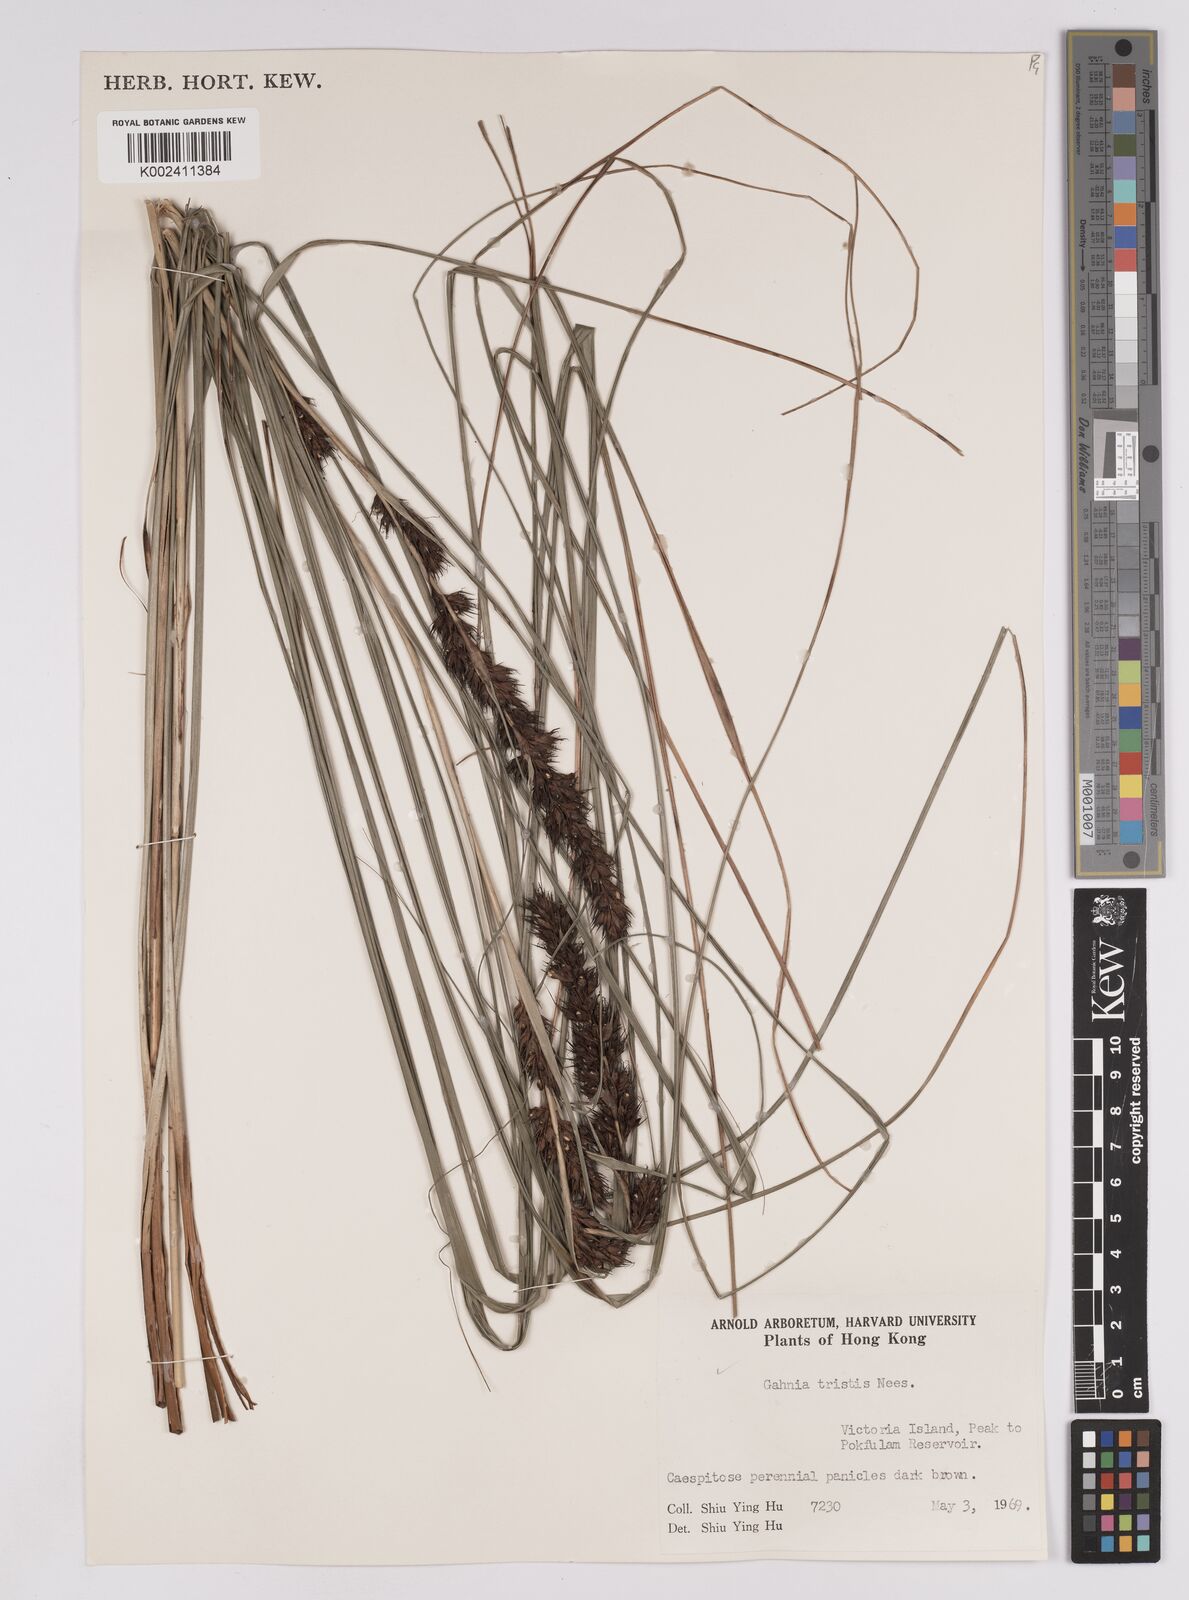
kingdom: Plantae
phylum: Tracheophyta
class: Liliopsida
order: Poales
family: Cyperaceae
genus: Gahnia
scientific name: Gahnia tristis
